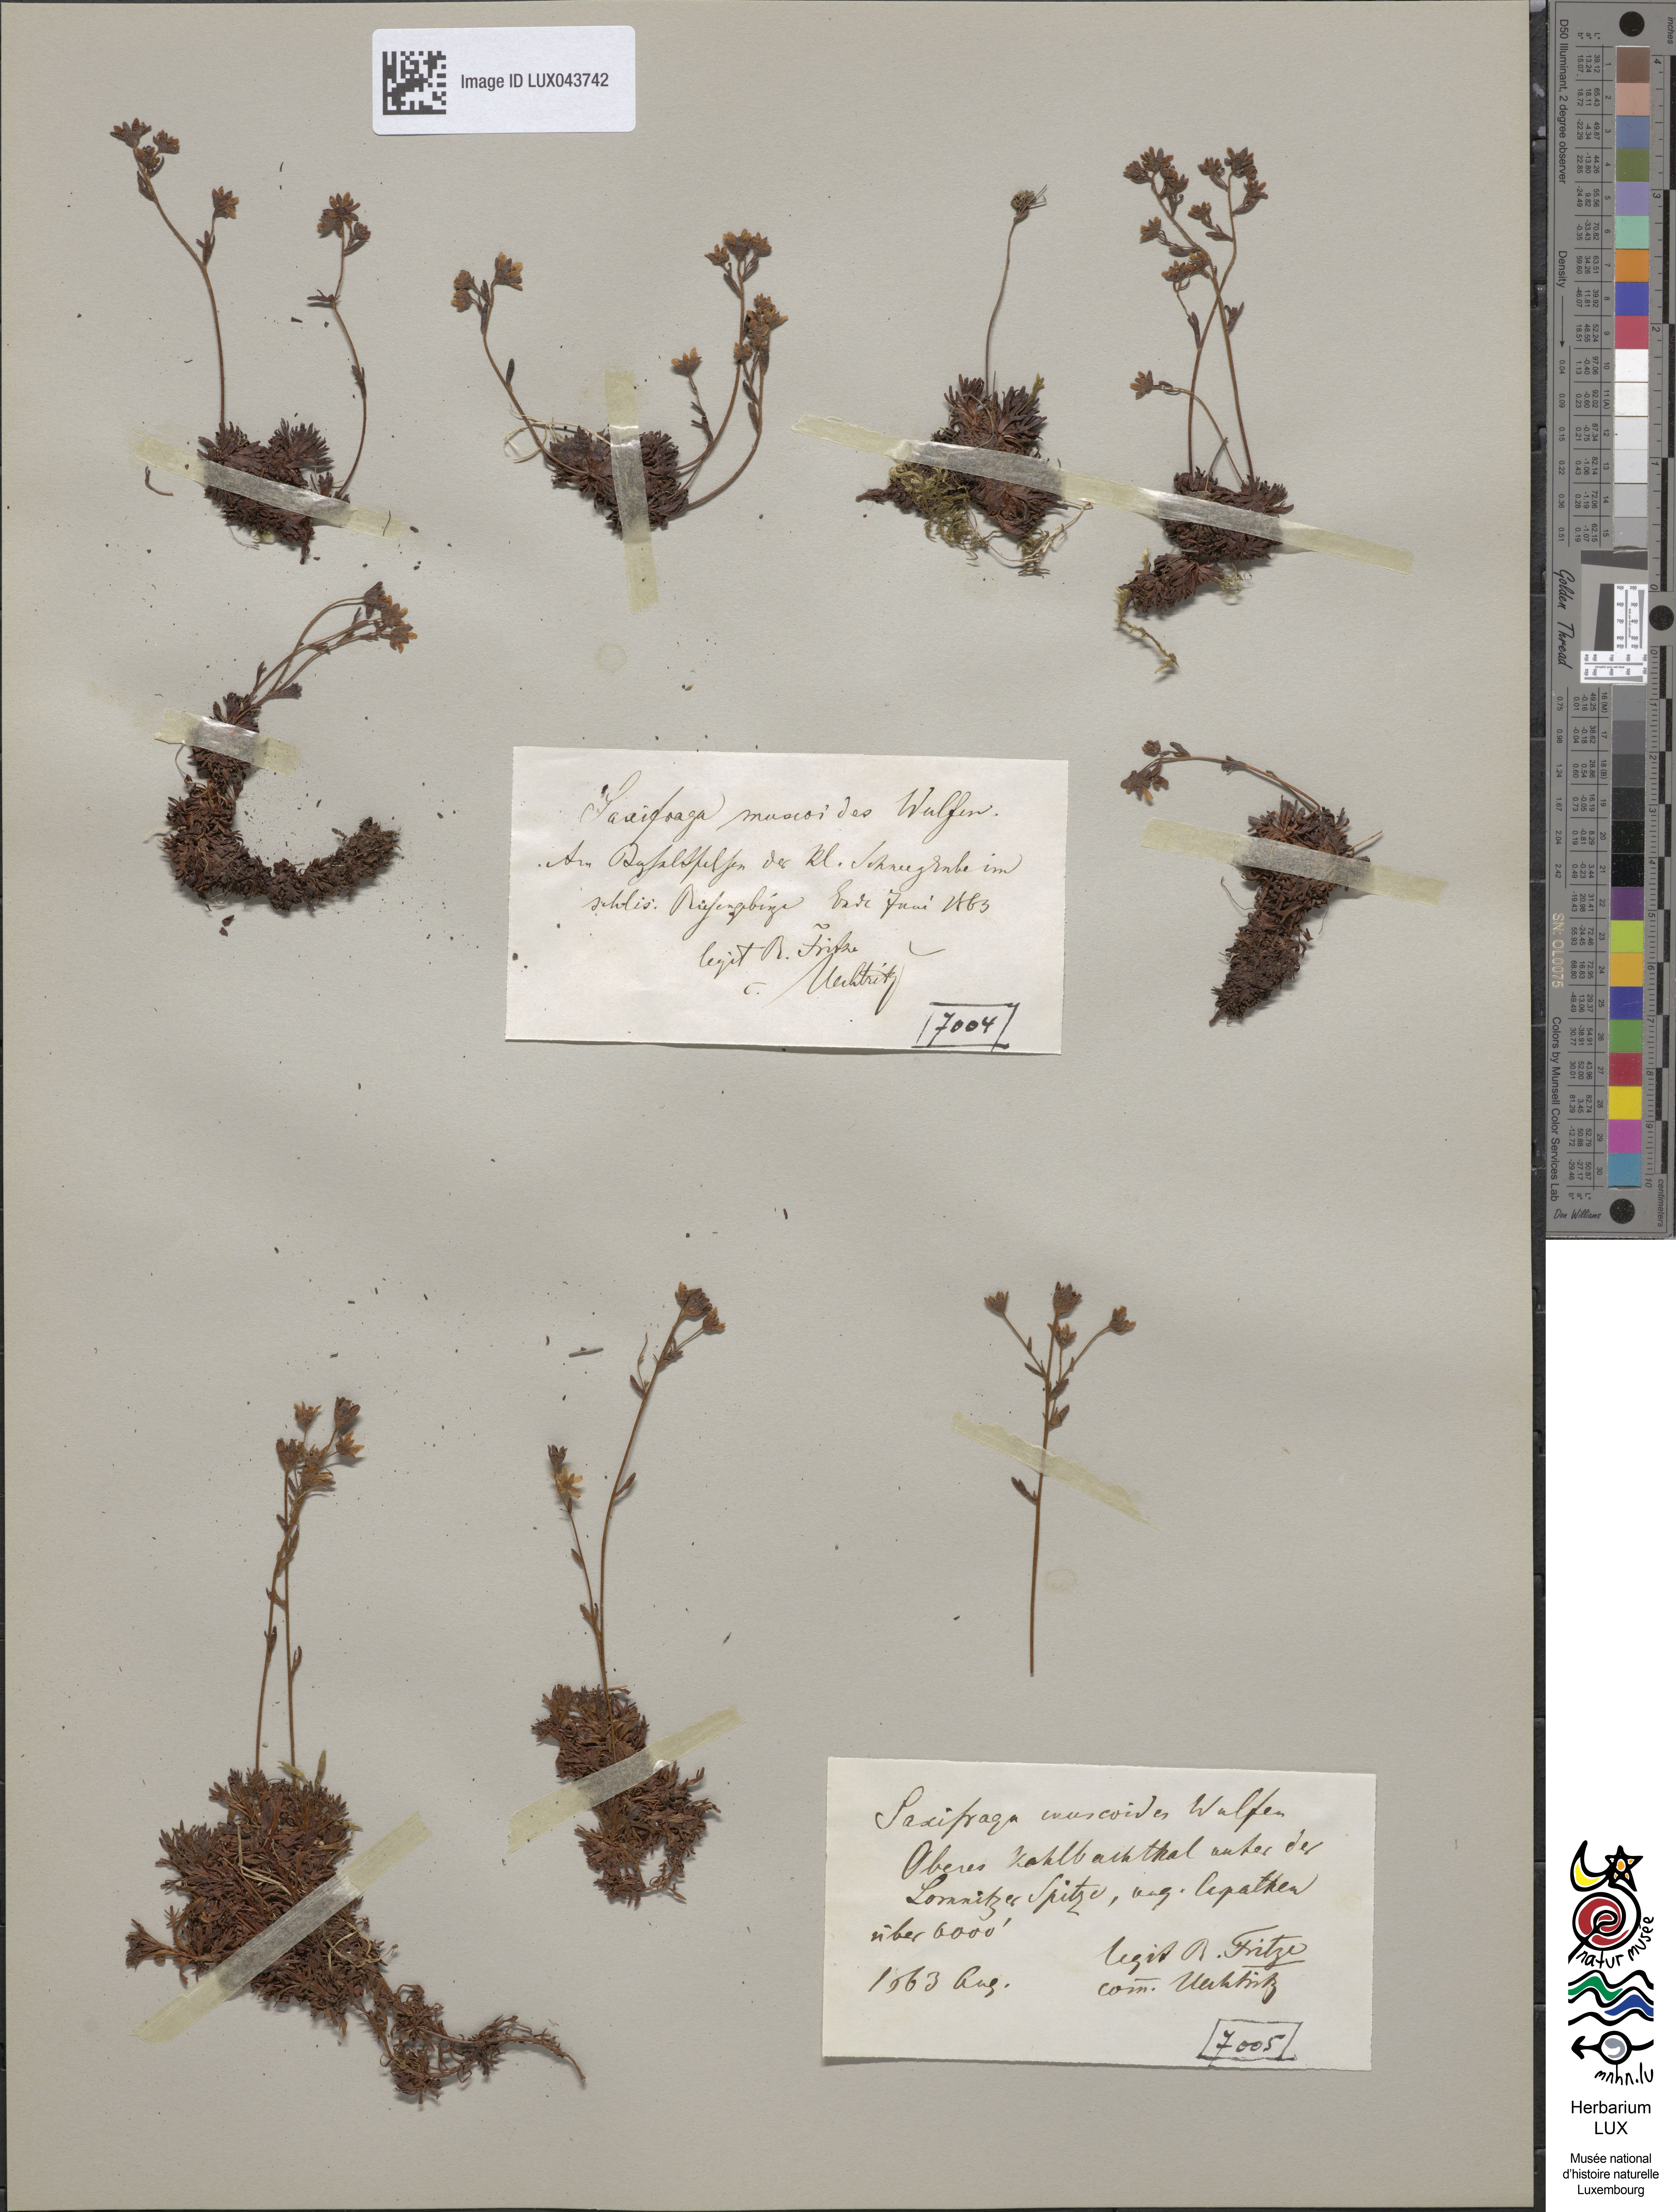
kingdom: Plantae
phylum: Tracheophyta
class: Magnoliopsida
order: Saxifragales
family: Saxifragaceae
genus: Saxifraga
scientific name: Saxifraga moschata
